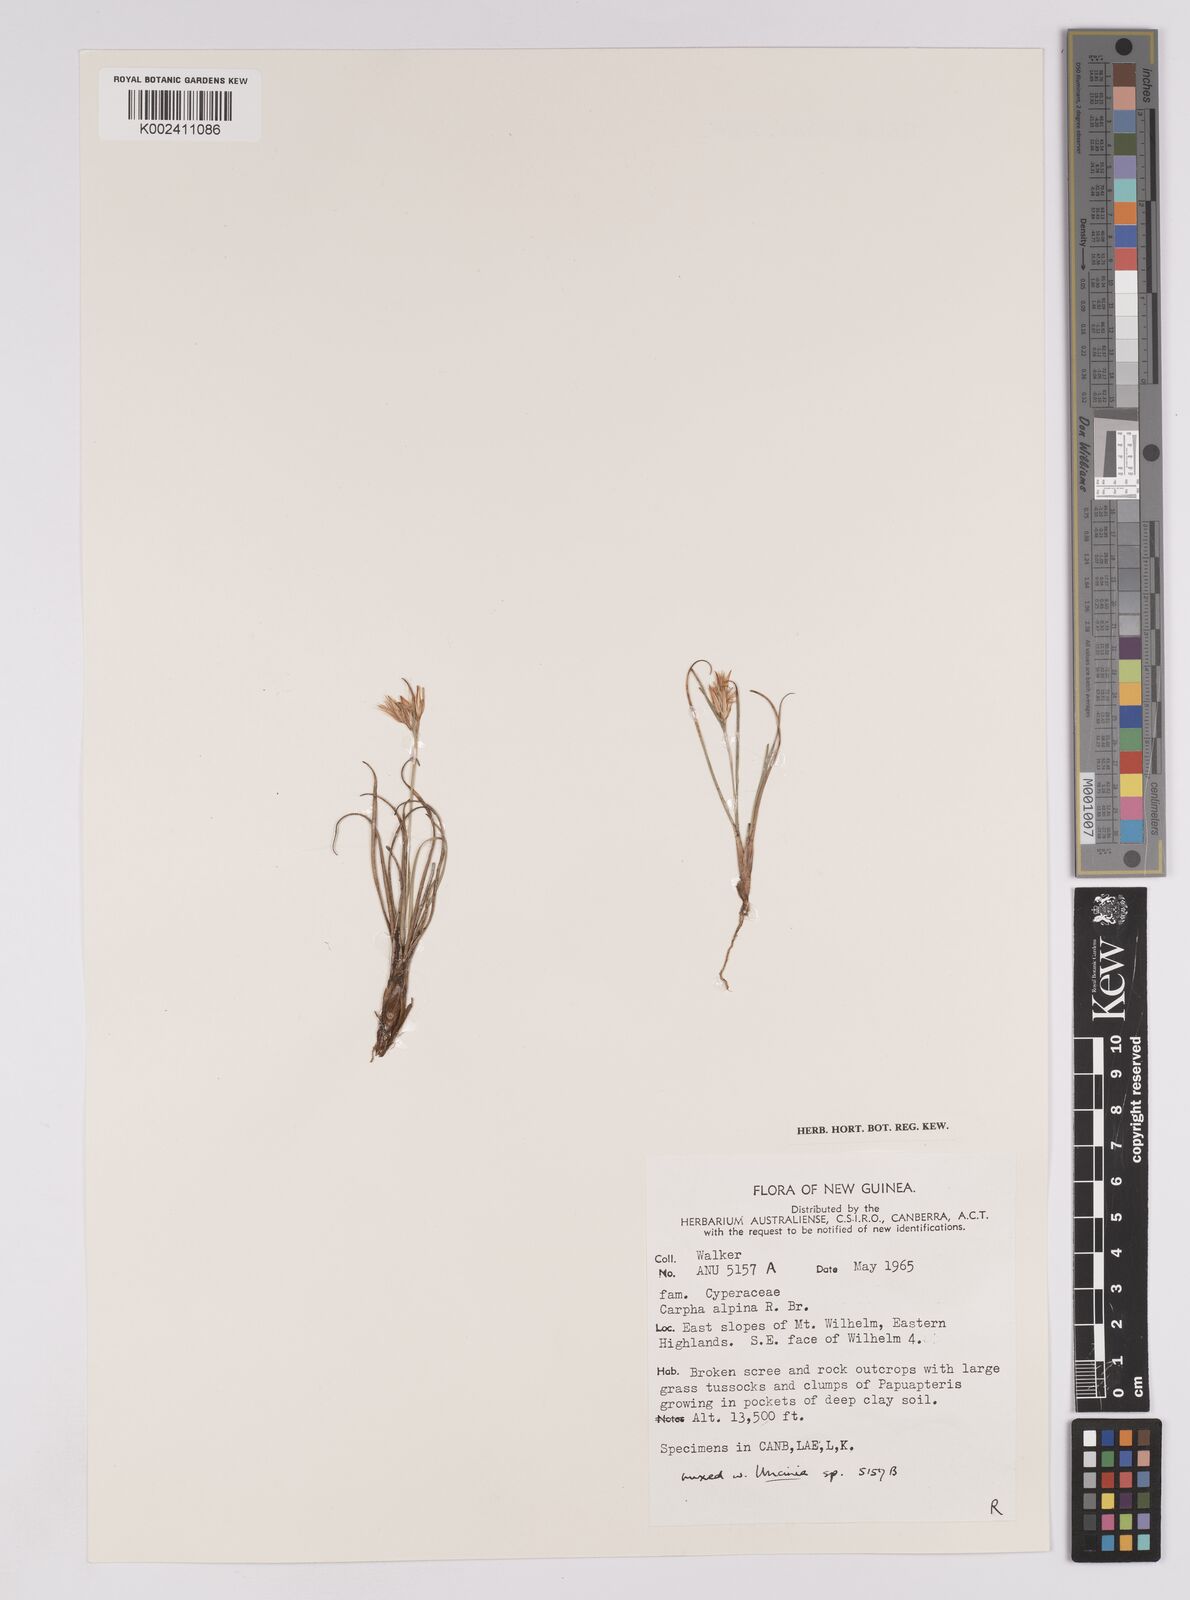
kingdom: Plantae
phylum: Tracheophyta
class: Liliopsida
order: Poales
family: Cyperaceae
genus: Carpha
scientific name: Carpha alpina
